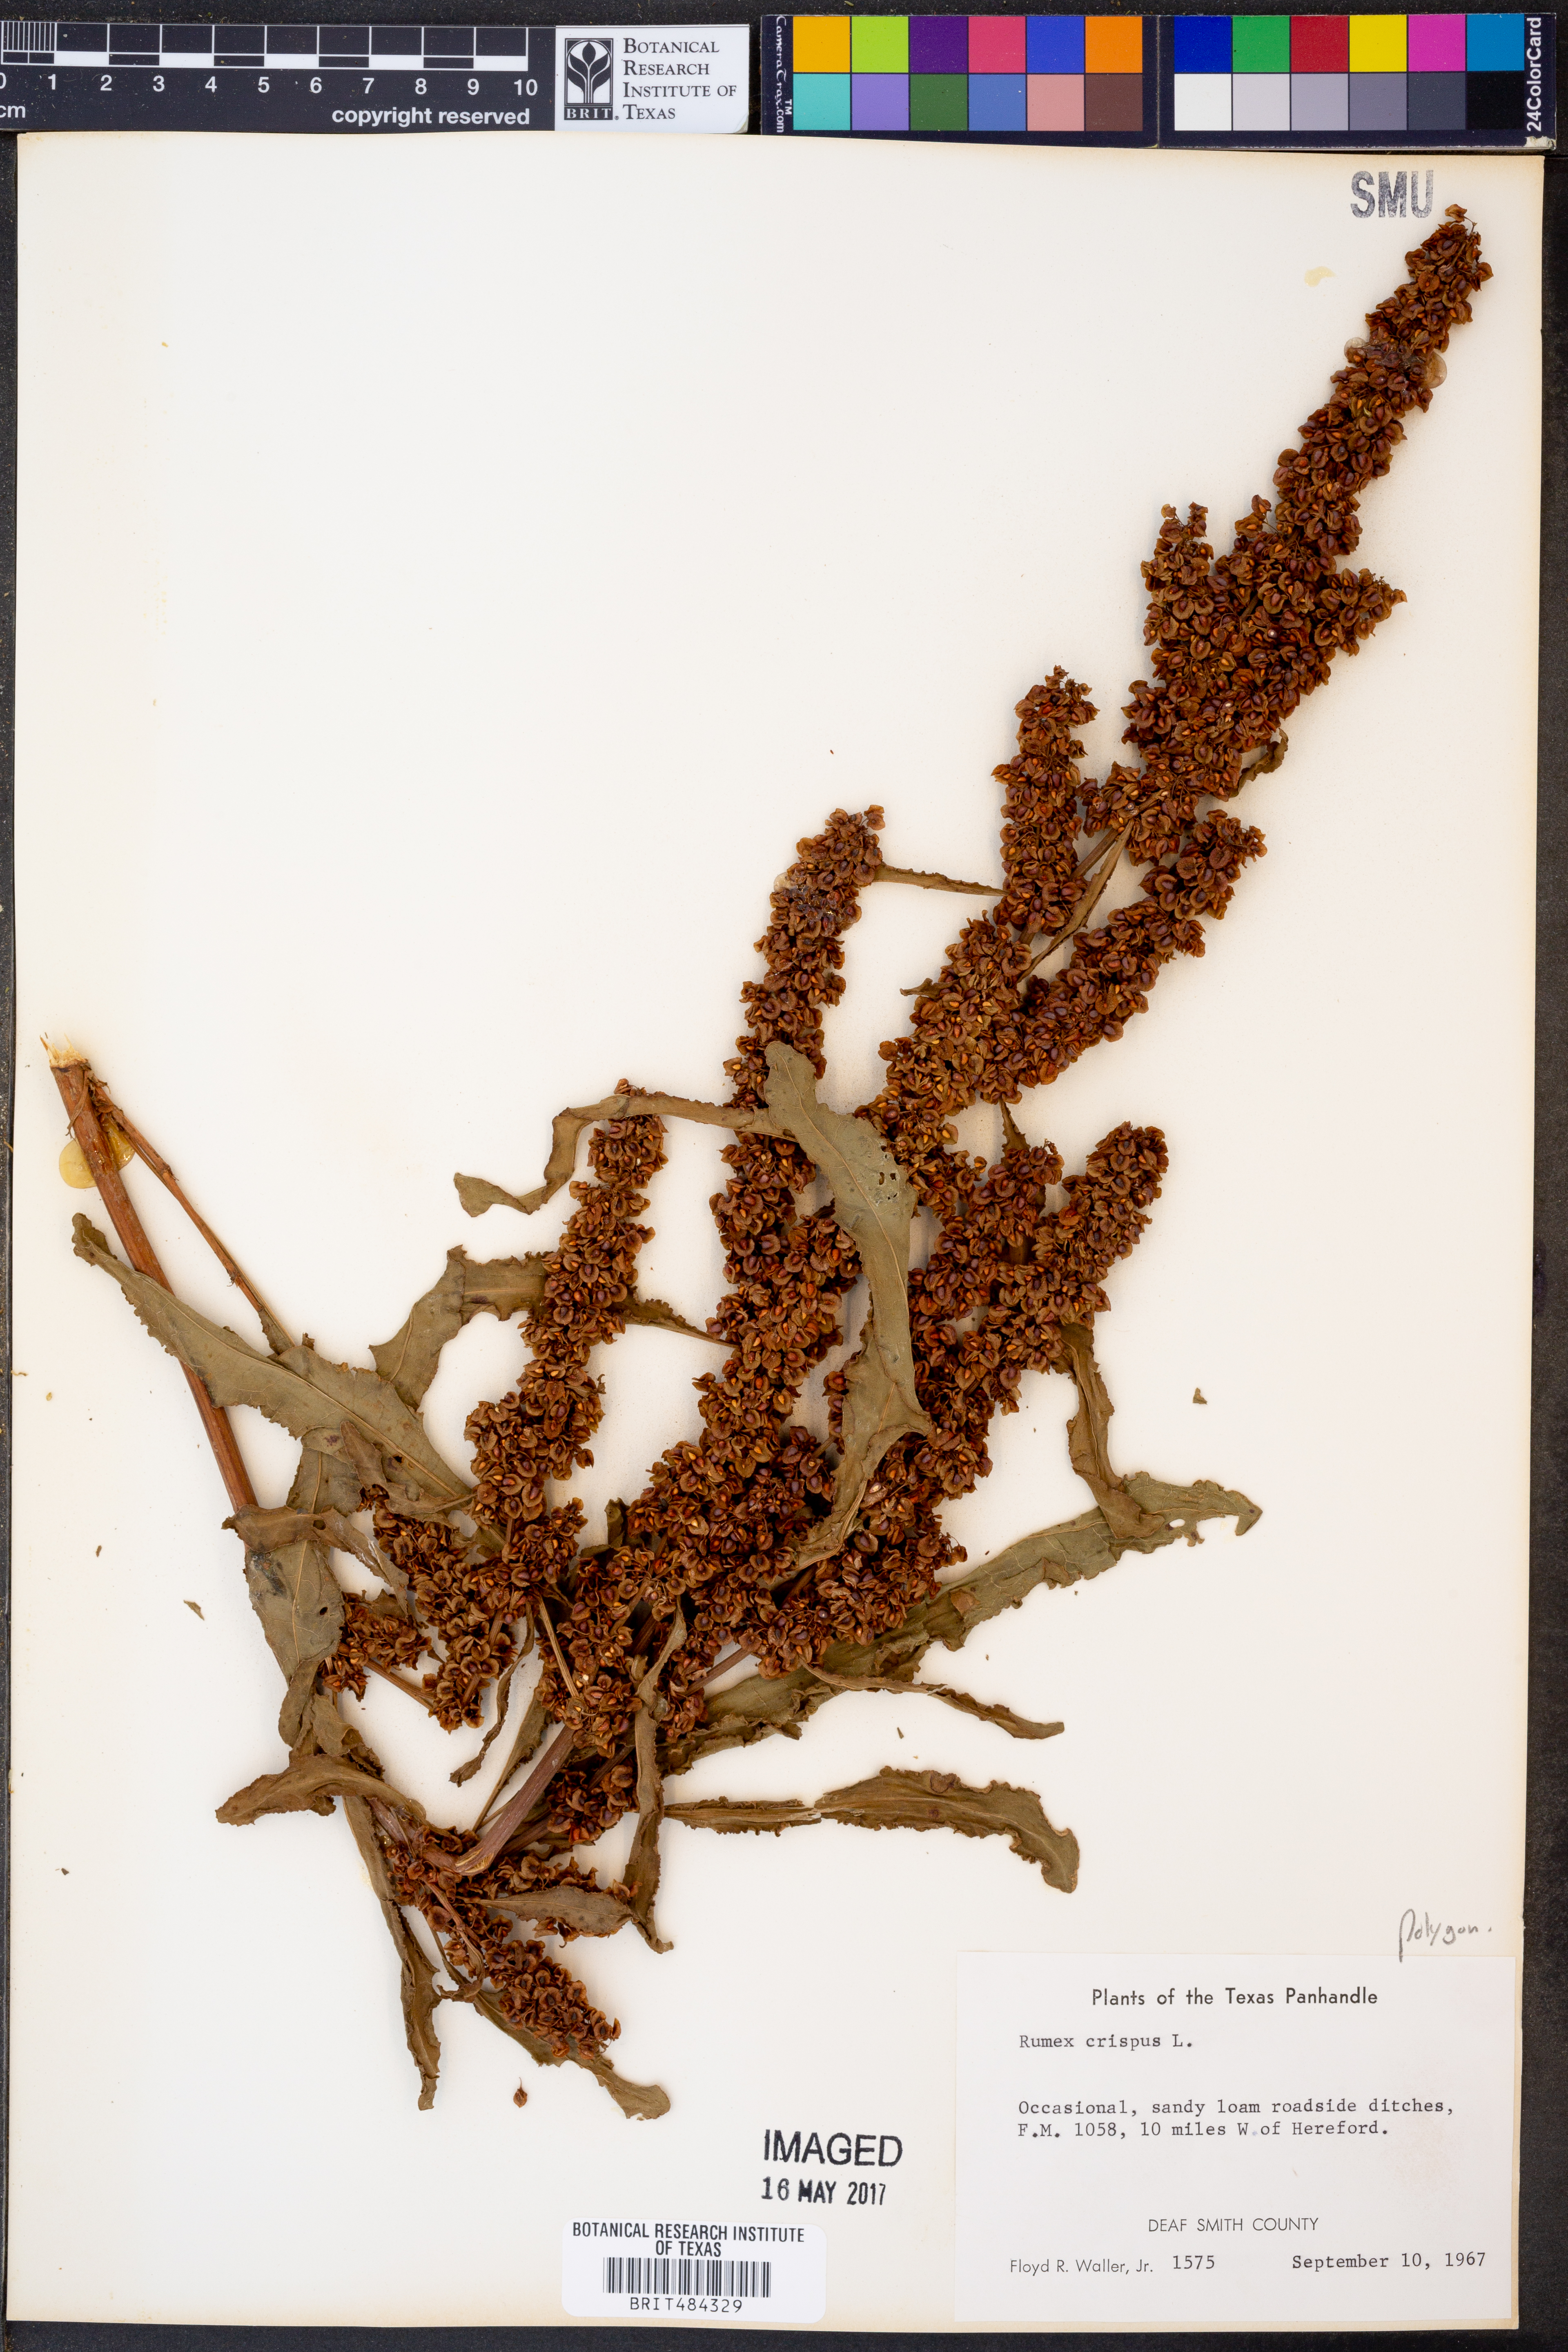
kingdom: Plantae
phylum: Tracheophyta
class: Magnoliopsida
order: Caryophyllales
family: Polygonaceae
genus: Rumex
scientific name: Rumex crispus
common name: Curled dock
